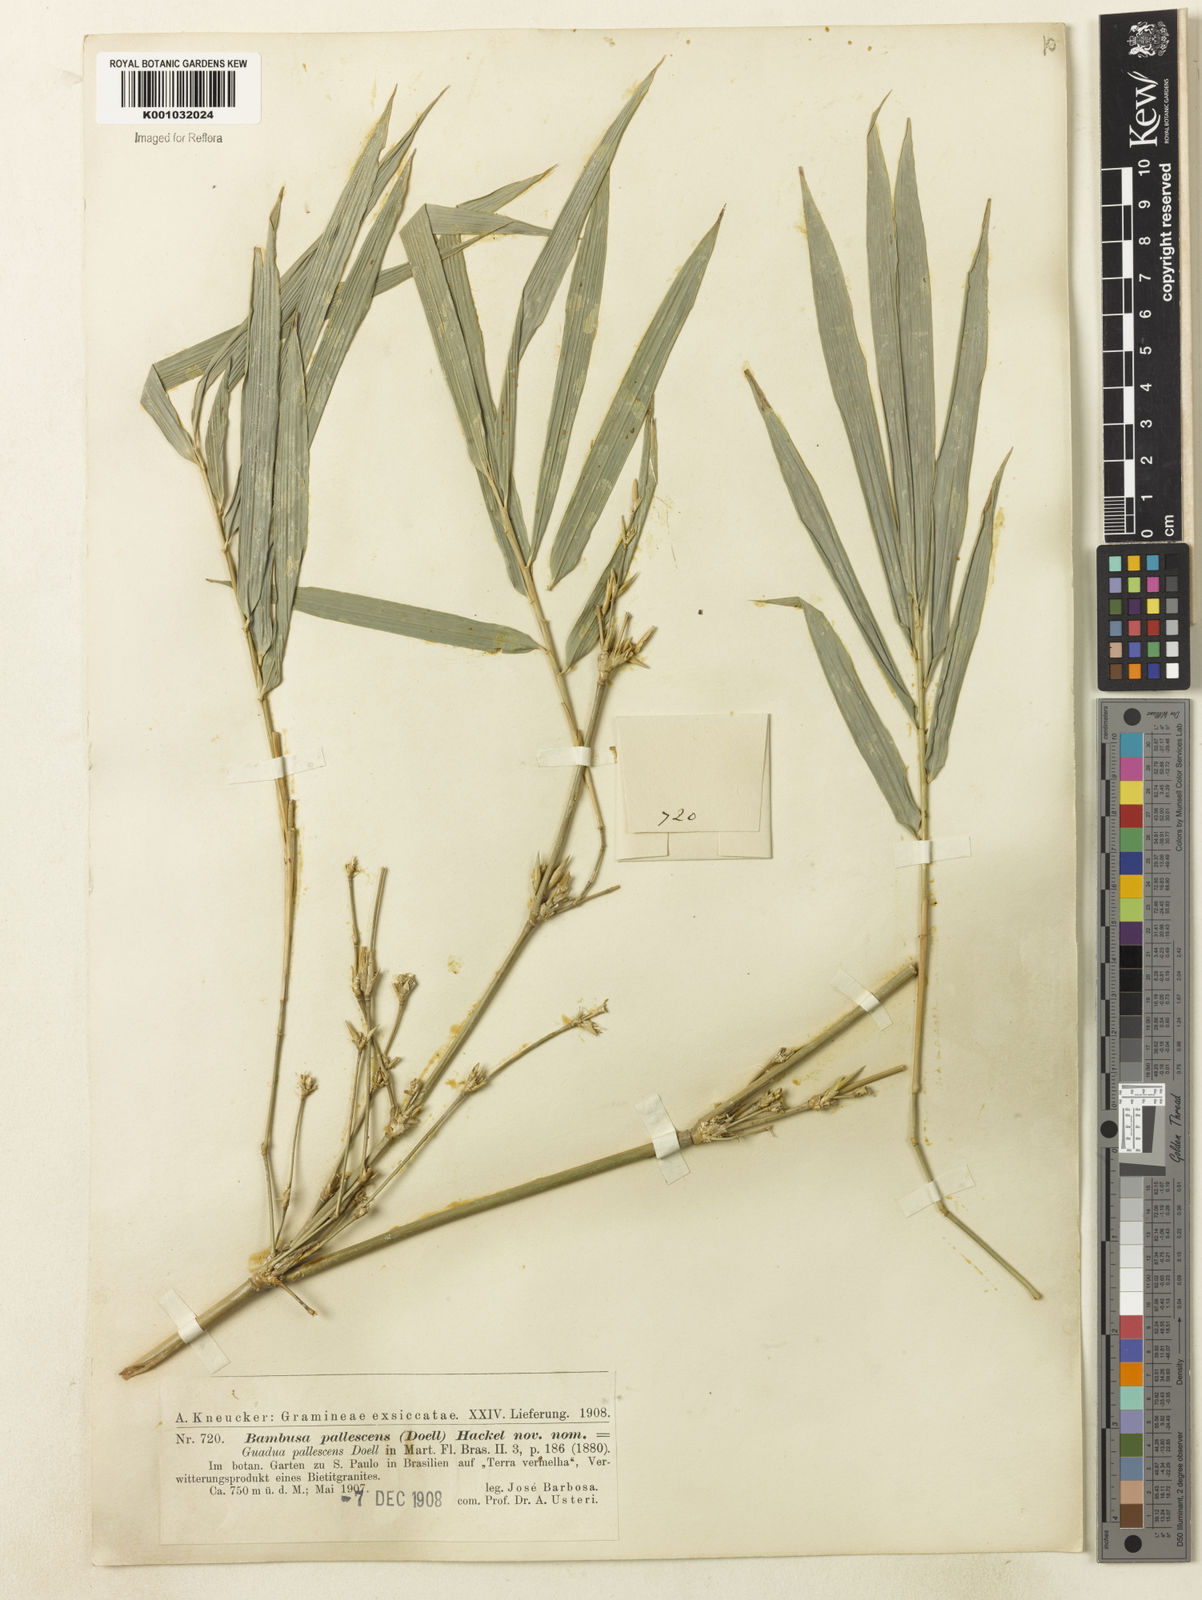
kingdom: Plantae
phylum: Tracheophyta
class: Liliopsida
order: Poales
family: Poaceae
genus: Bambusa
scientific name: Bambusa tuldoides
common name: Verdant bamboo
